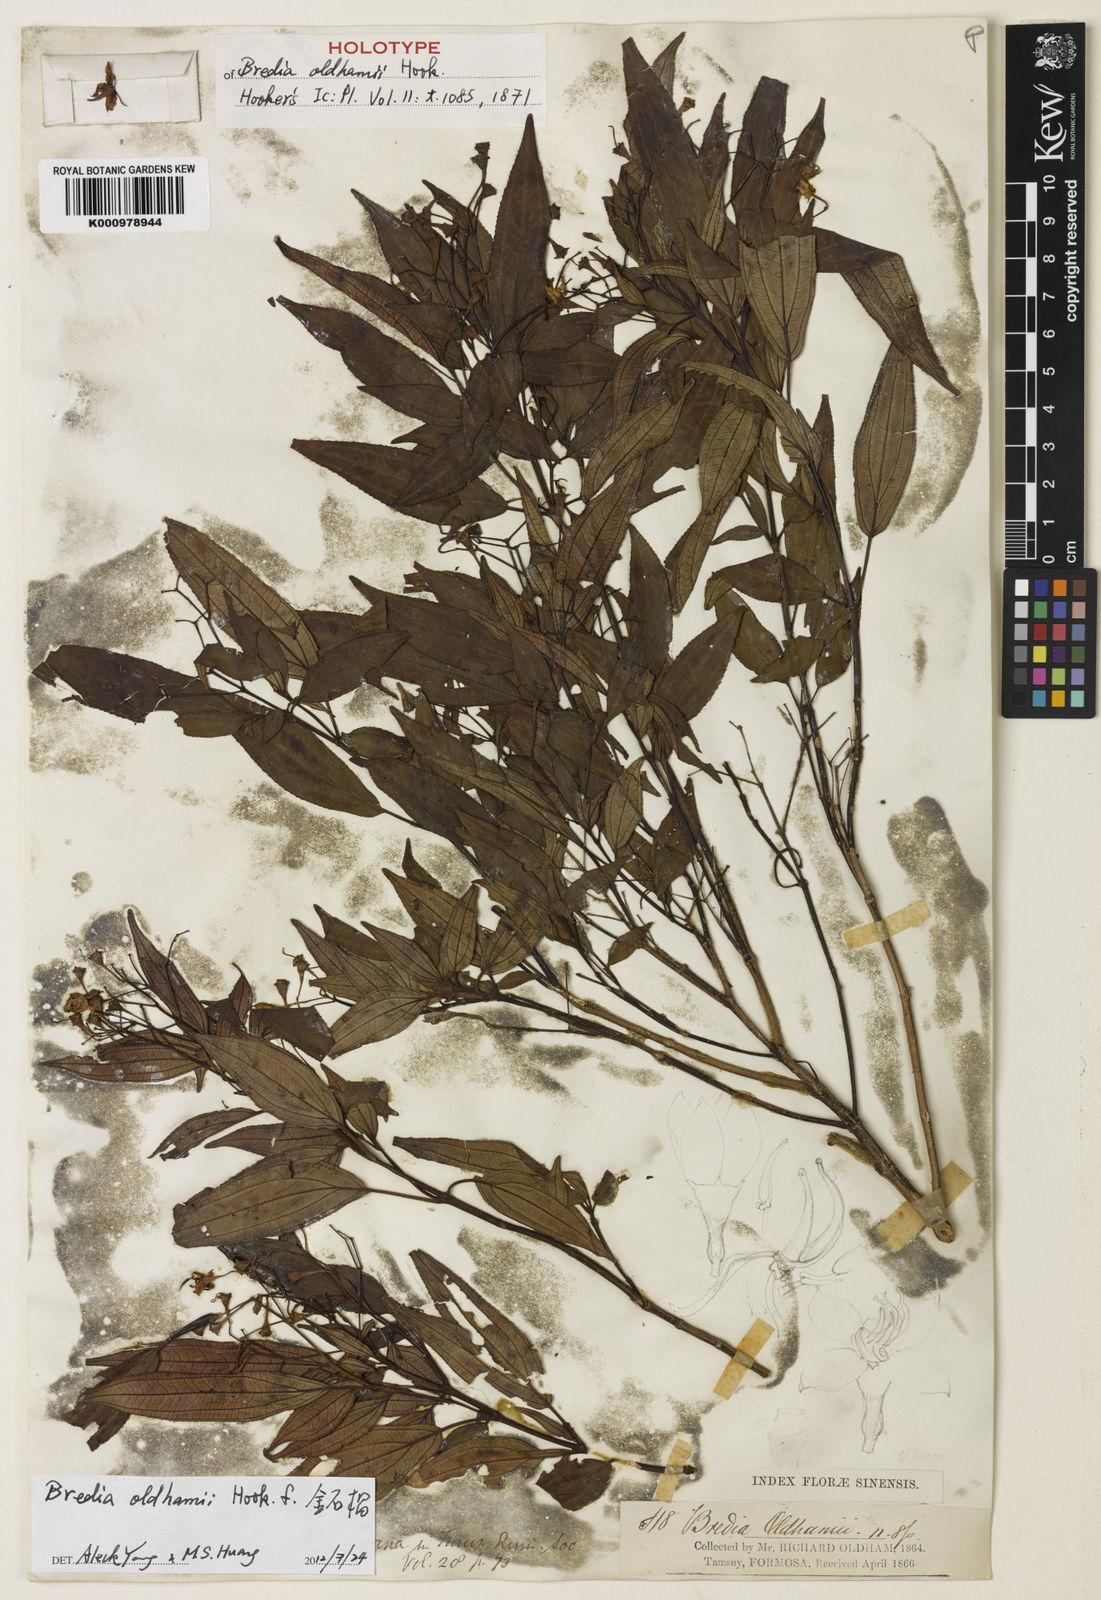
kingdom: Plantae
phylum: Tracheophyta
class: Magnoliopsida
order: Myrtales
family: Melastomataceae
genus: Bredia
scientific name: Bredia oldhamii
